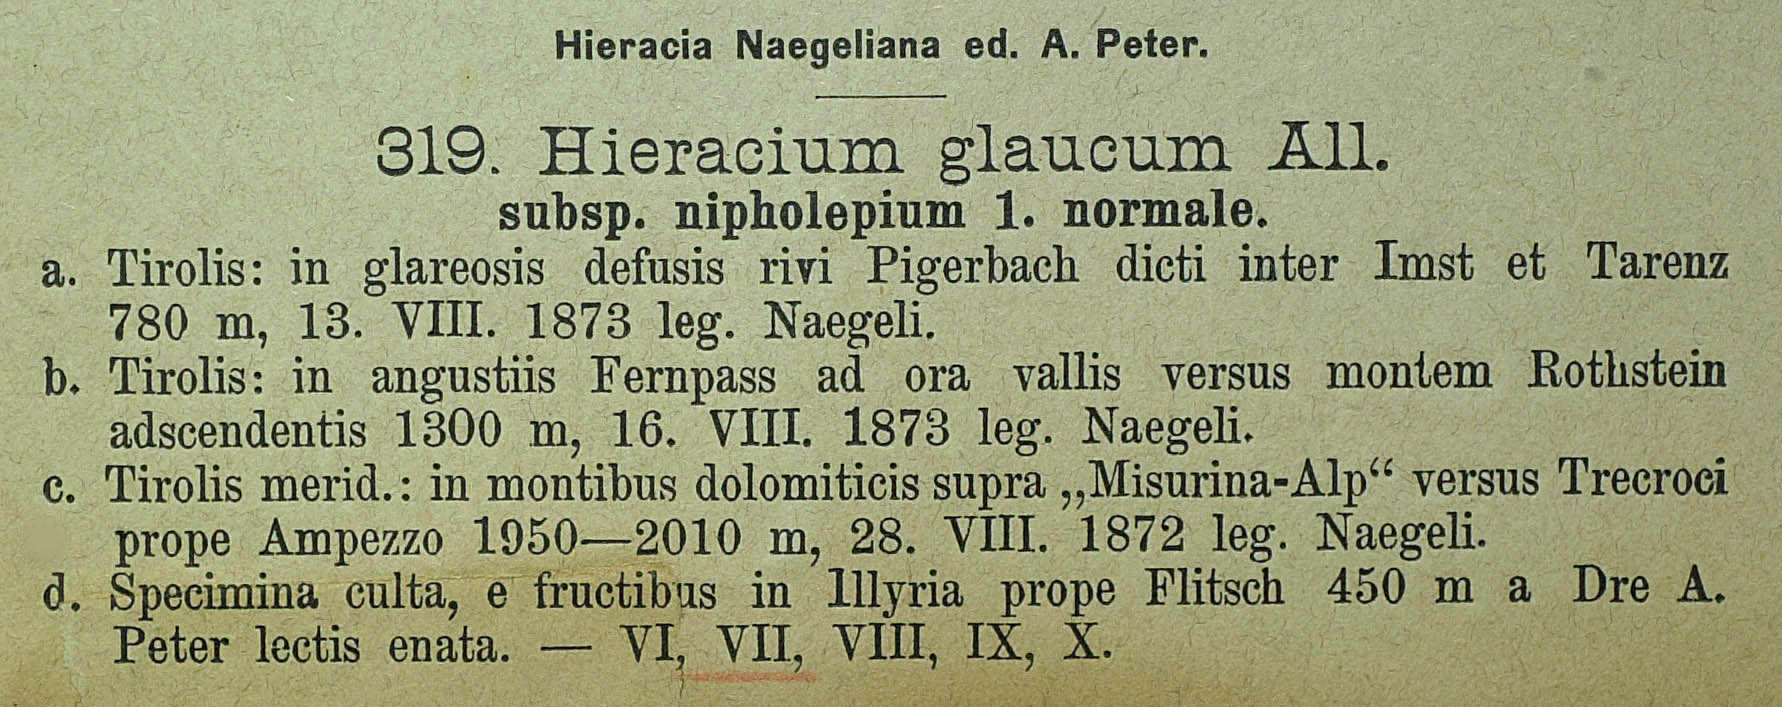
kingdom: Plantae
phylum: Tracheophyta
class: Magnoliopsida
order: Asterales
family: Asteraceae
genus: Hieracium
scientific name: Hieracium glaucum
